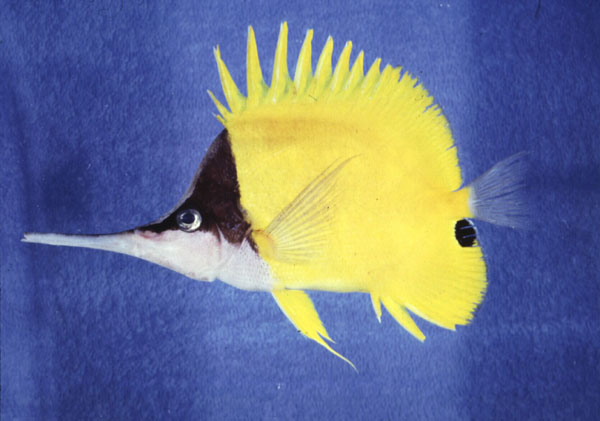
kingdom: Animalia
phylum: Chordata
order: Perciformes
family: Chaetodontidae
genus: Forcipiger
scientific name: Forcipiger longirostris
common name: Longnose butterflyfish
